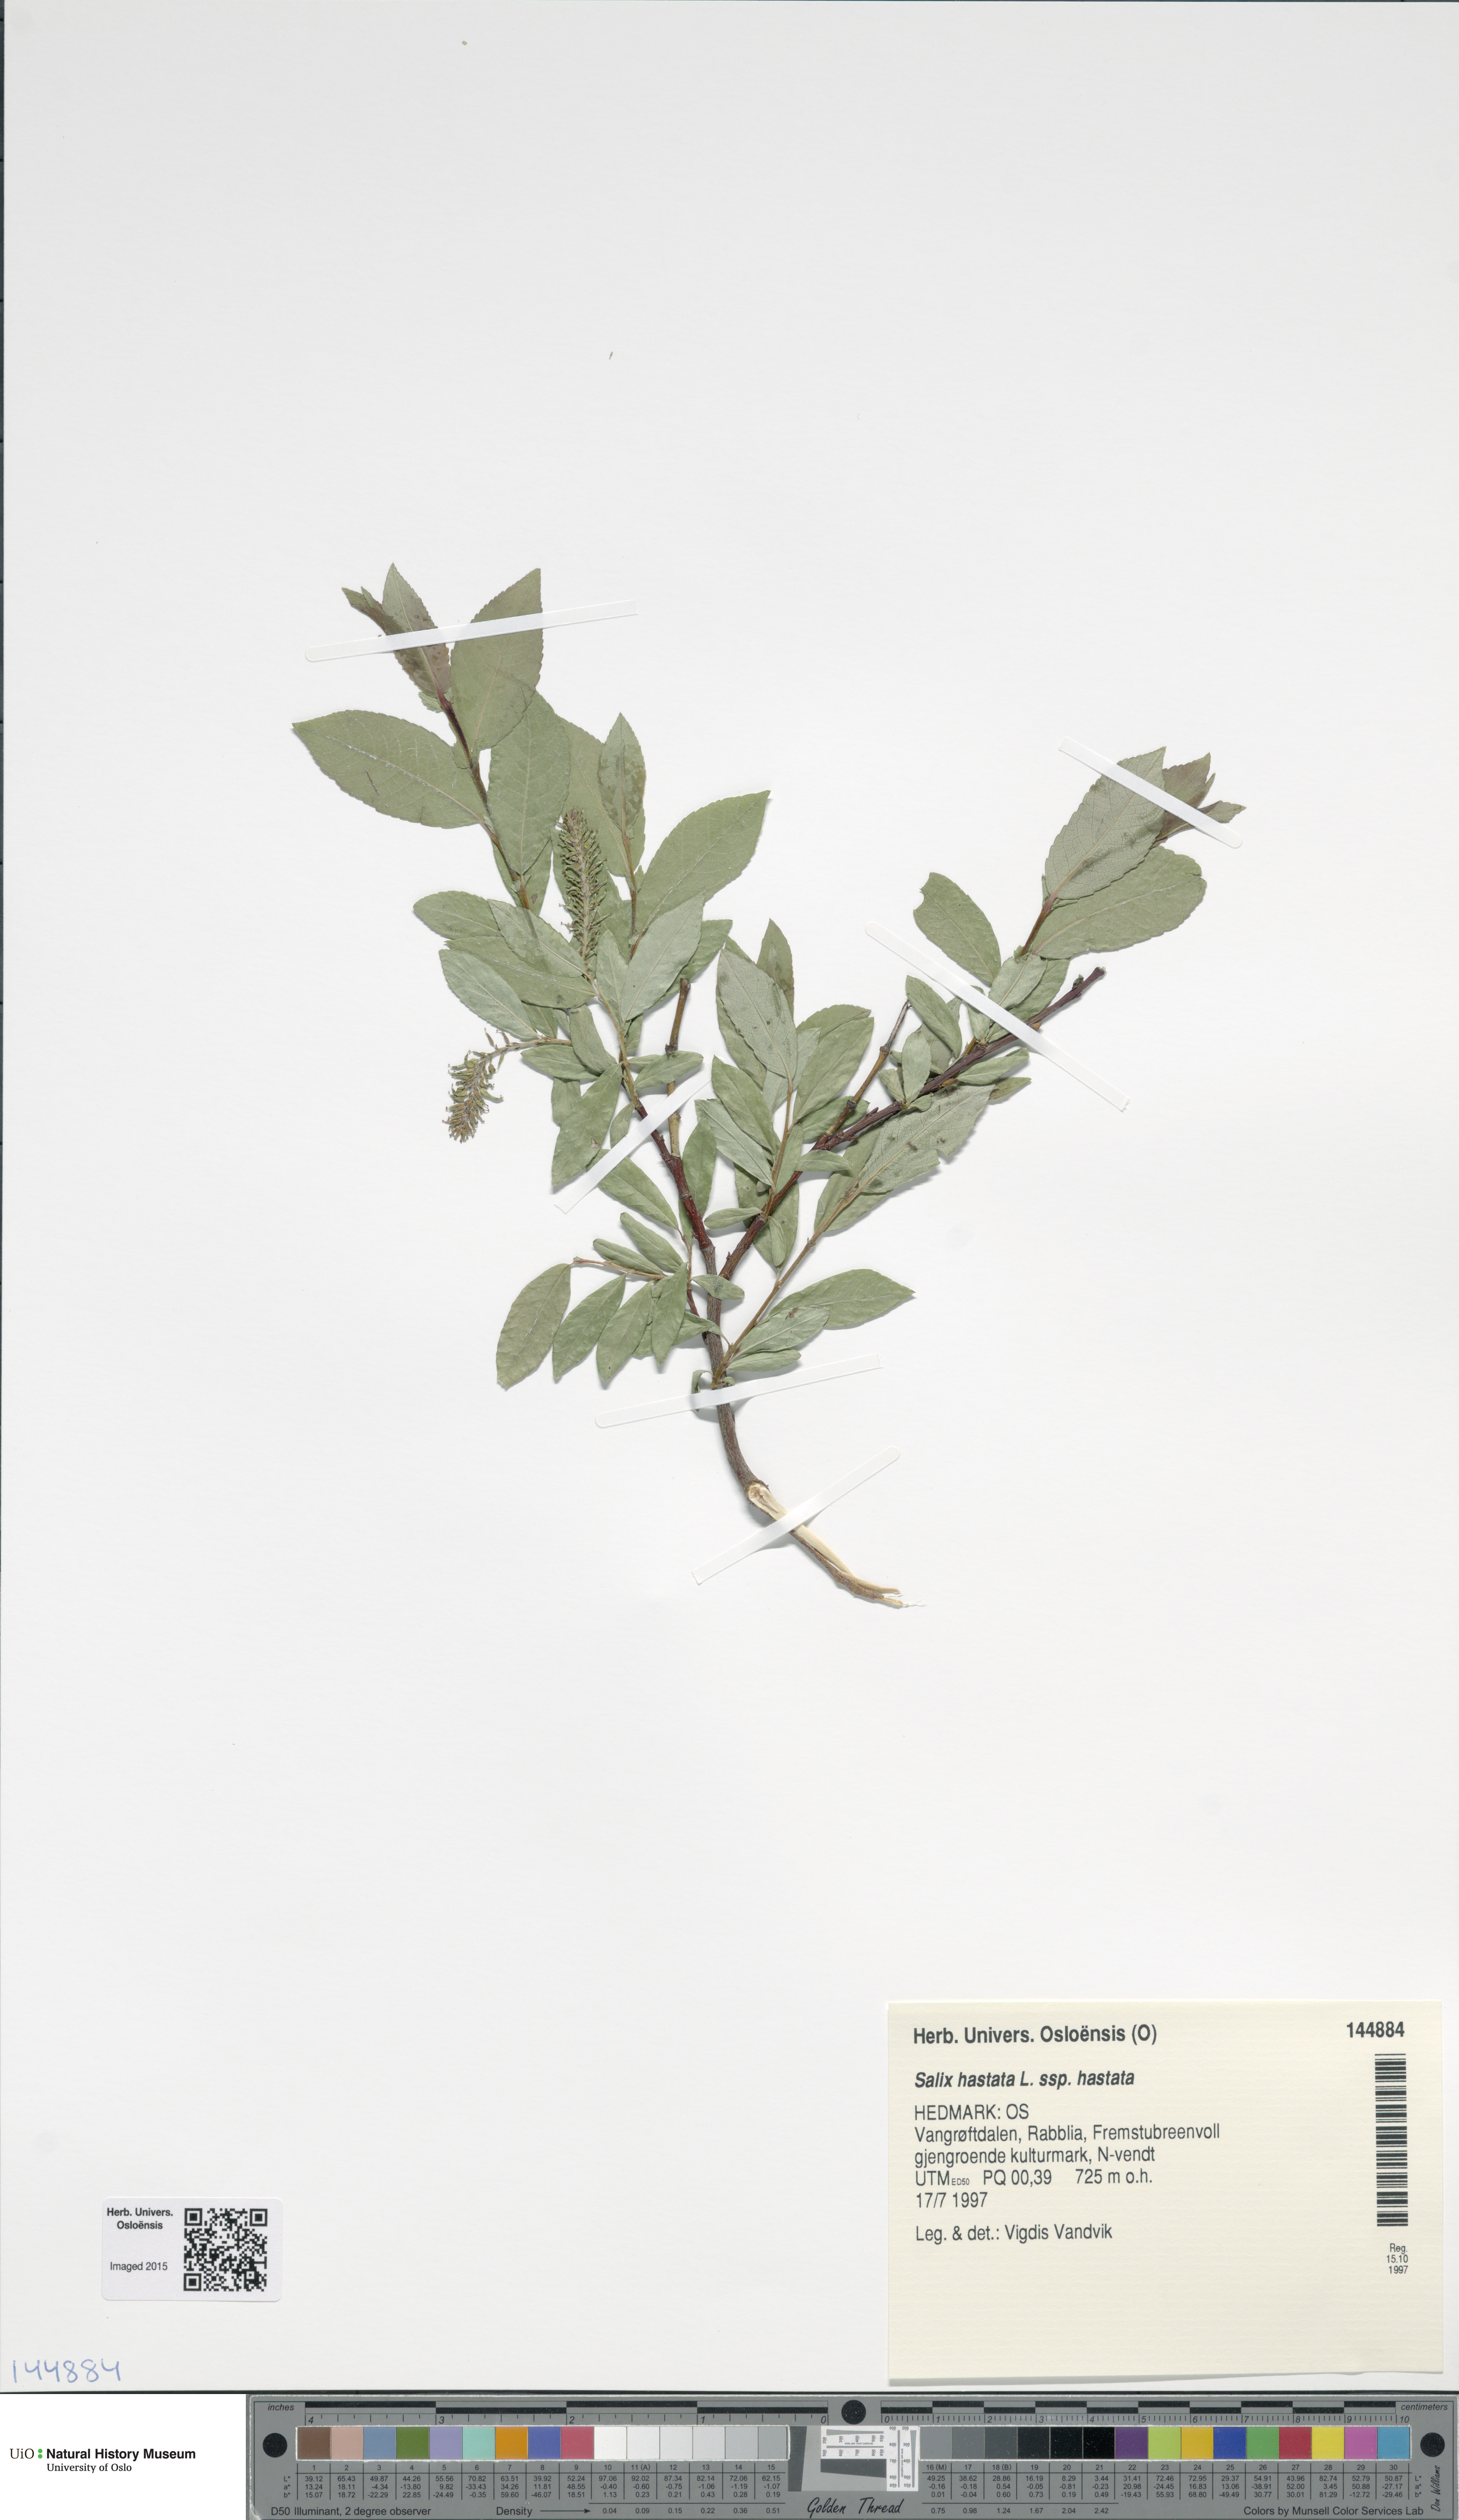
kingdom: Plantae
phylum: Tracheophyta
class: Magnoliopsida
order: Malpighiales
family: Salicaceae
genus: Salix
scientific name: Salix hastata
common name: Halberd willow
